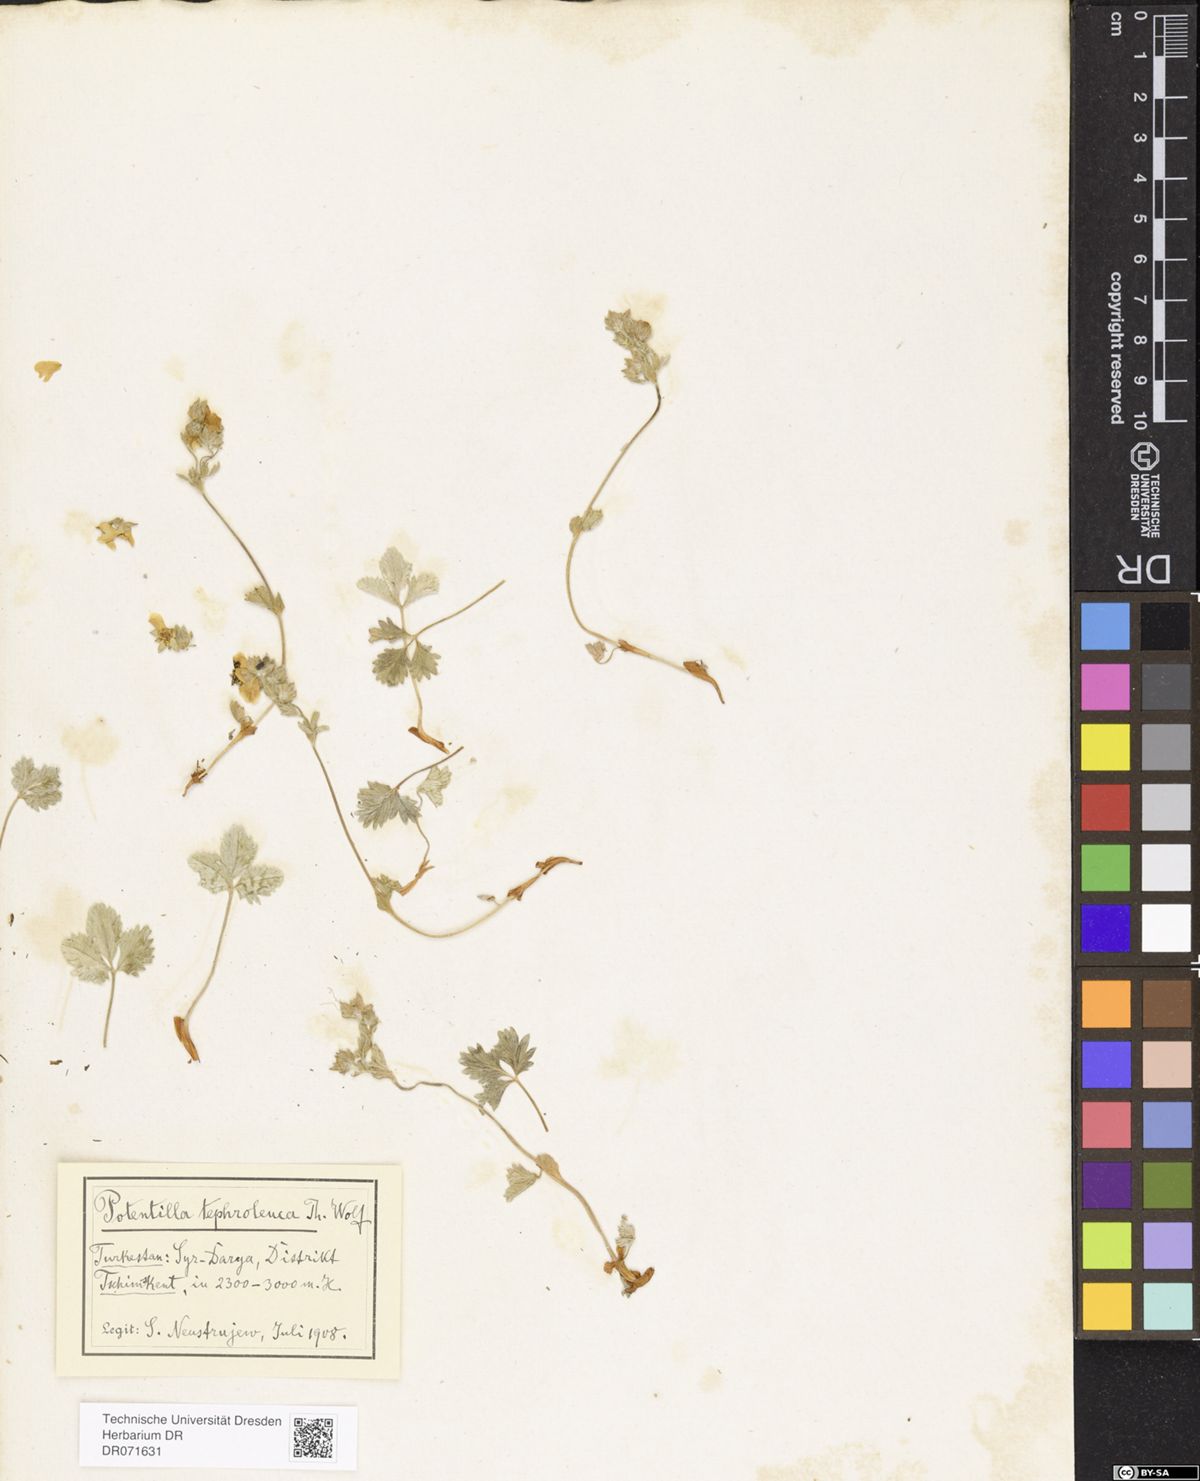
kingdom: Plantae
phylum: Tracheophyta
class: Magnoliopsida
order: Rosales
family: Rosaceae
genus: Potentilla
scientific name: Potentilla tephroleuca
